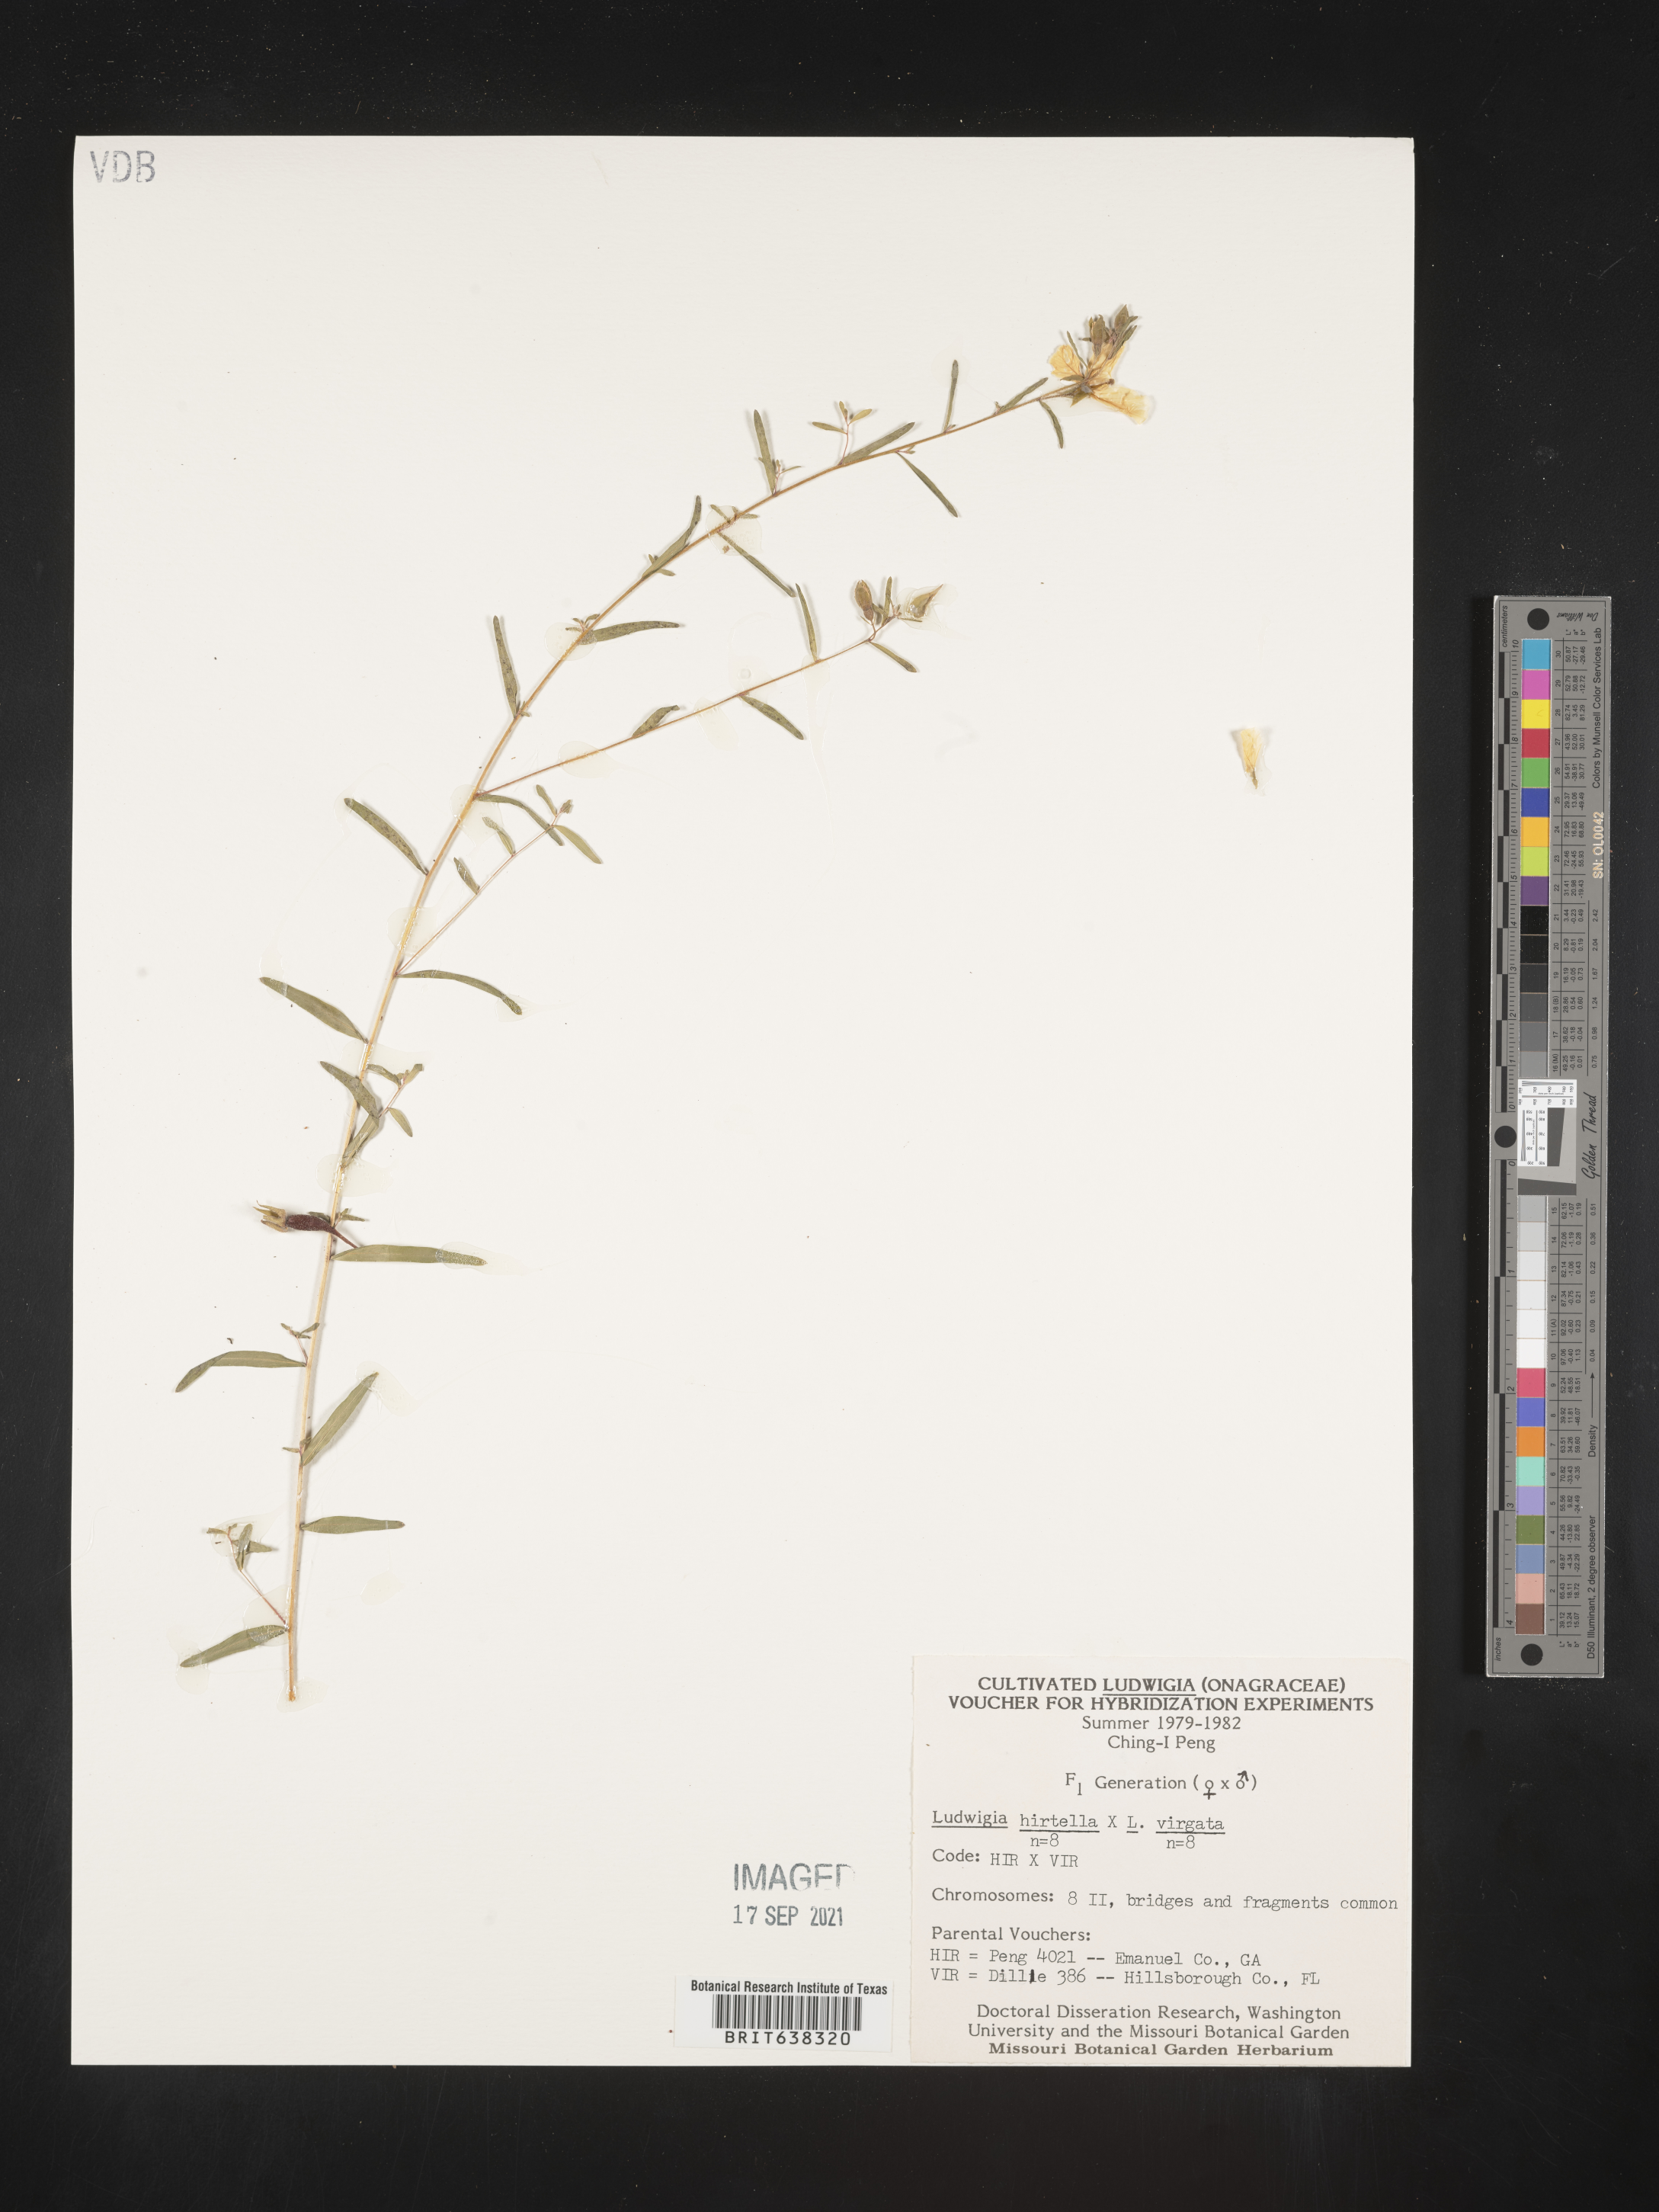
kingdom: Plantae
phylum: Tracheophyta
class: Magnoliopsida
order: Myrtales
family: Onagraceae
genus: Ludwigia
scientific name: Ludwigia
